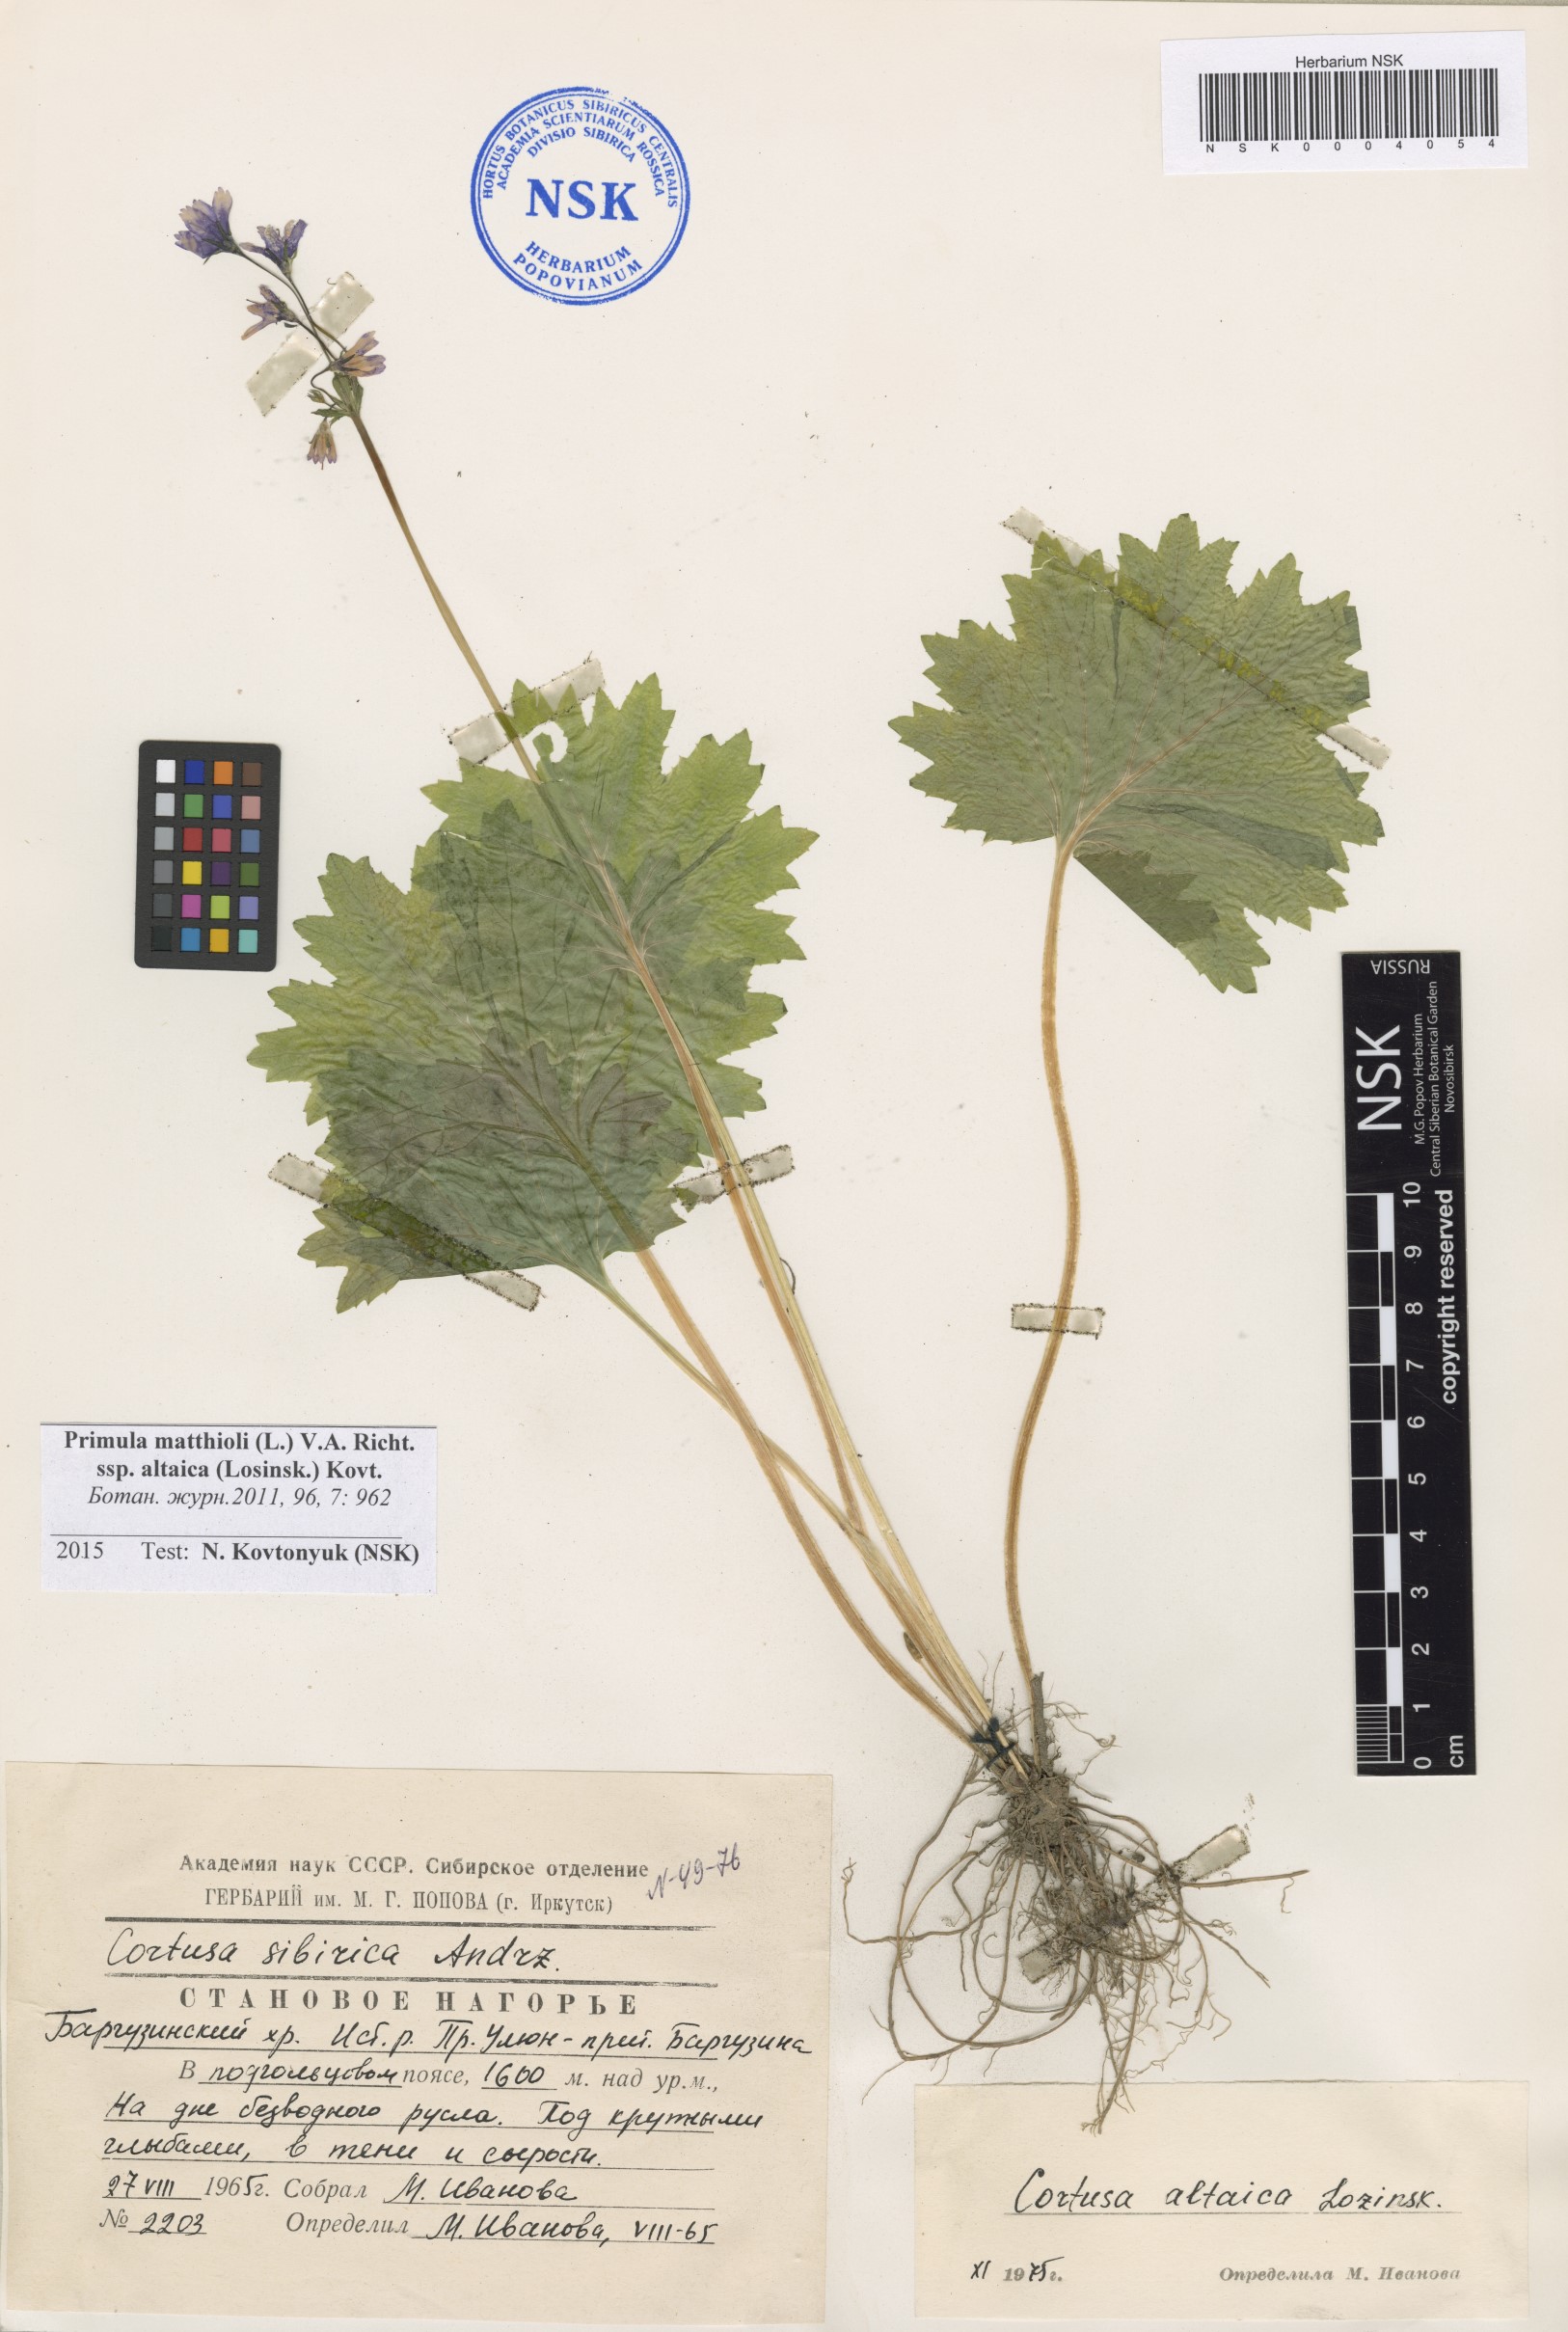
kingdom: Plantae
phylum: Tracheophyta
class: Magnoliopsida
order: Ericales
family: Primulaceae
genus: Primula
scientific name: Primula matthioli
